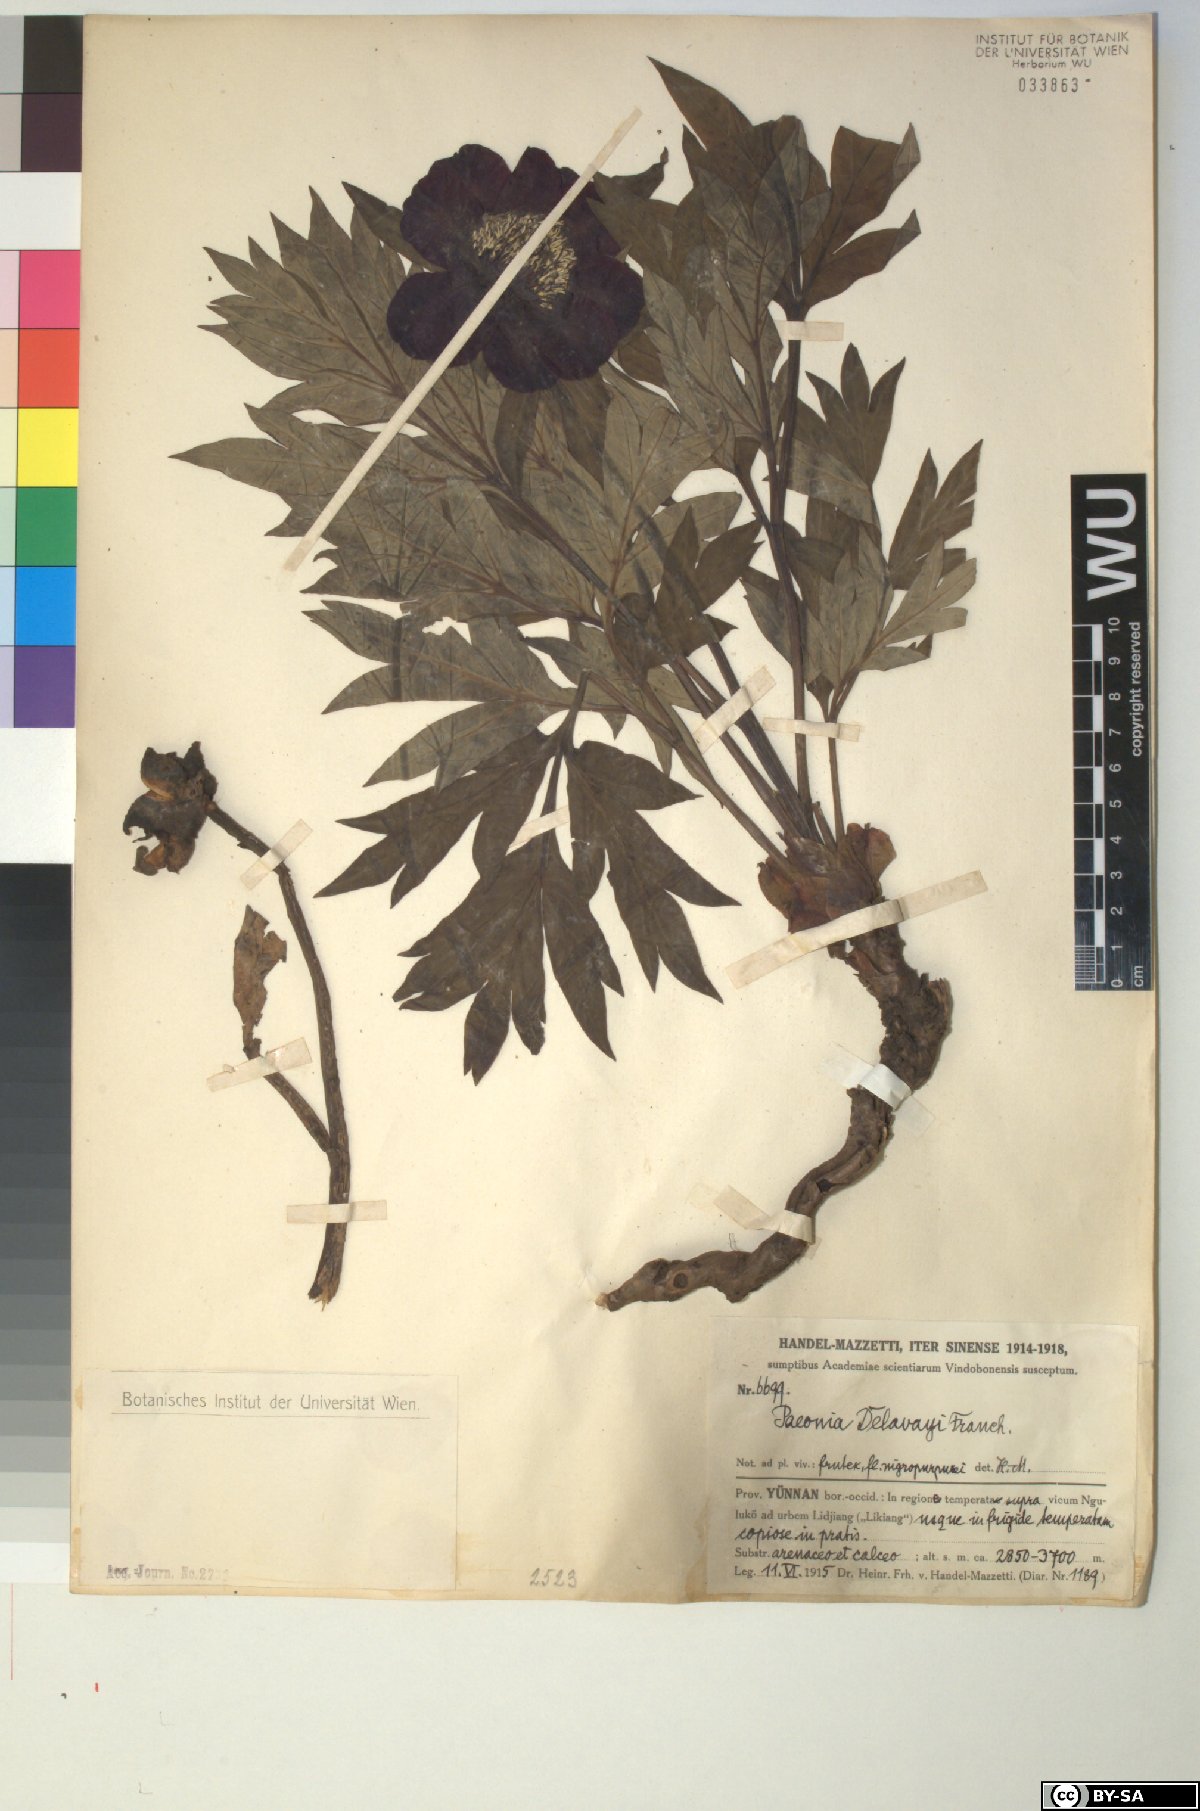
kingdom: Plantae
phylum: Tracheophyta
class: Magnoliopsida
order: Saxifragales
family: Paeoniaceae
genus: Paeonia
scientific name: Paeonia delavayi
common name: Dian mu dan
